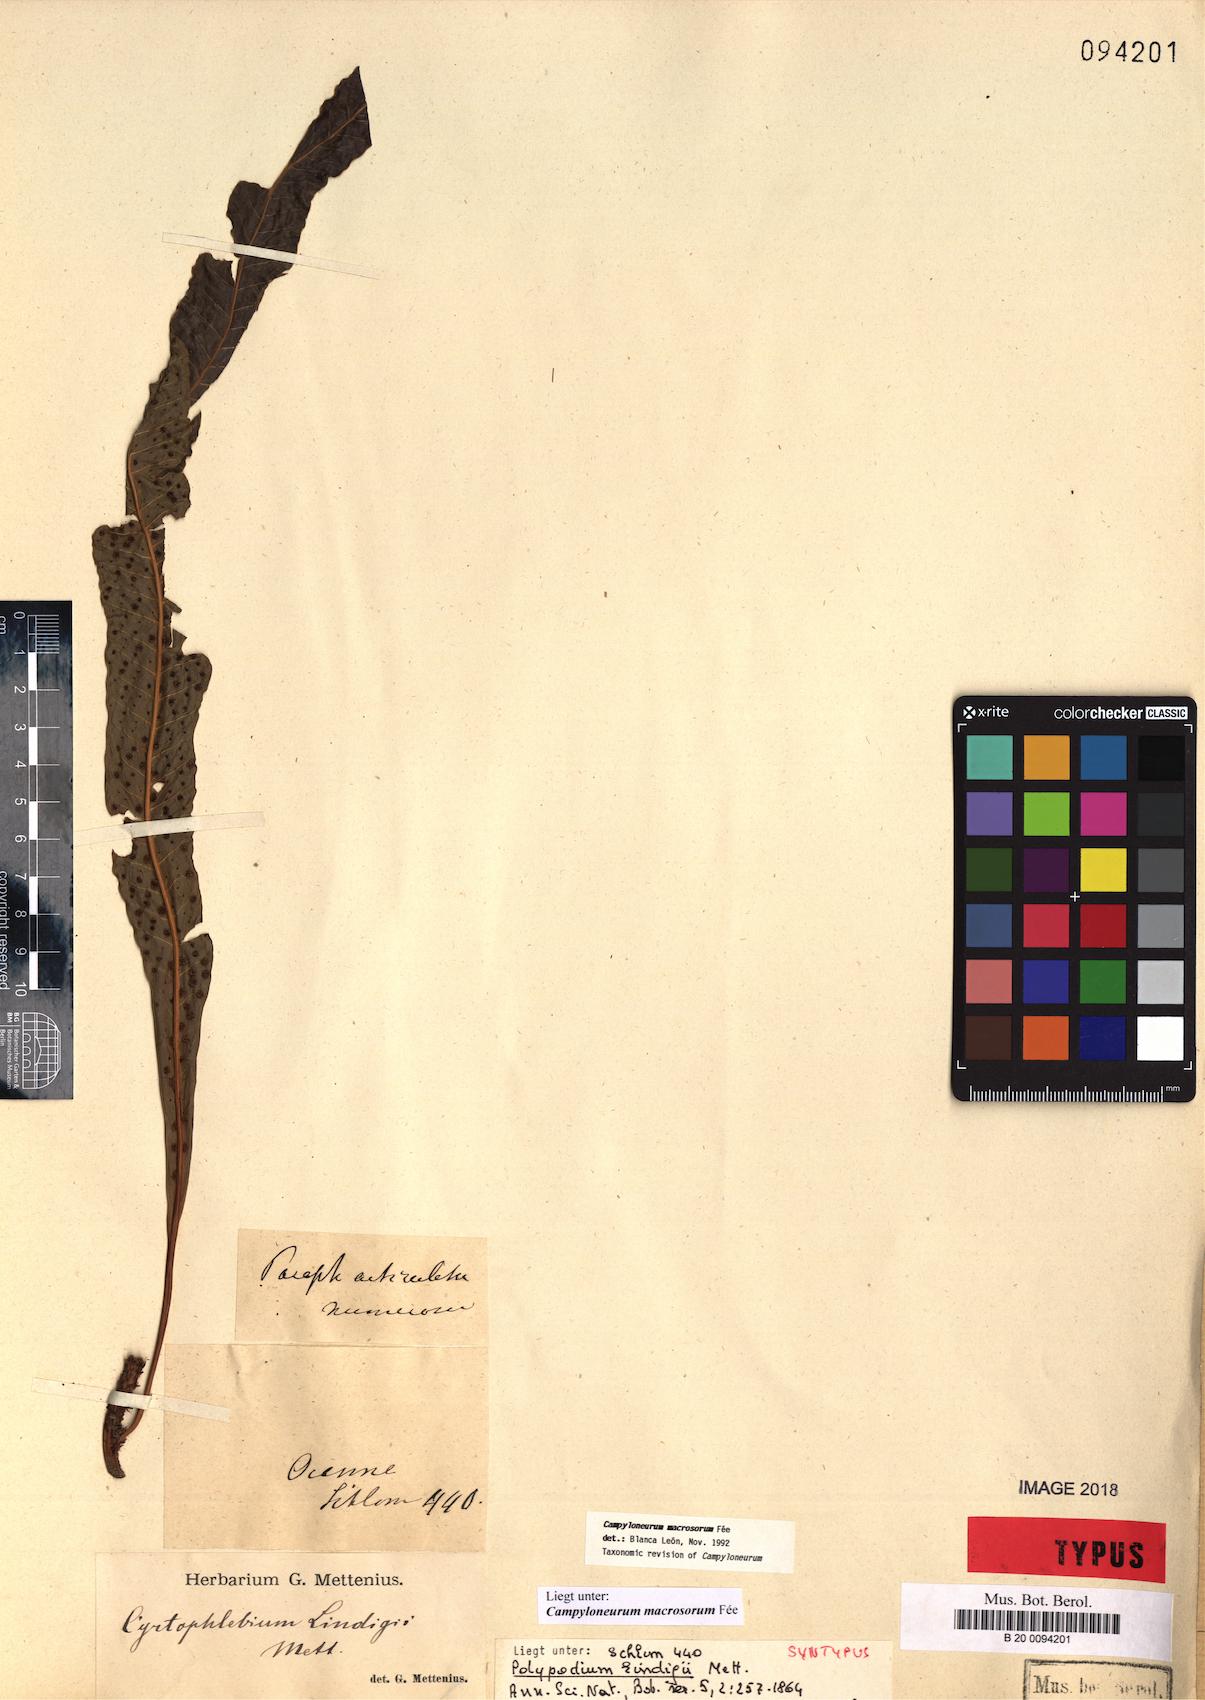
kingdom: Plantae
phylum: Tracheophyta
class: Polypodiopsida
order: Polypodiales
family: Polypodiaceae
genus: Campyloneurum
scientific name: Campyloneurum macrosorum
